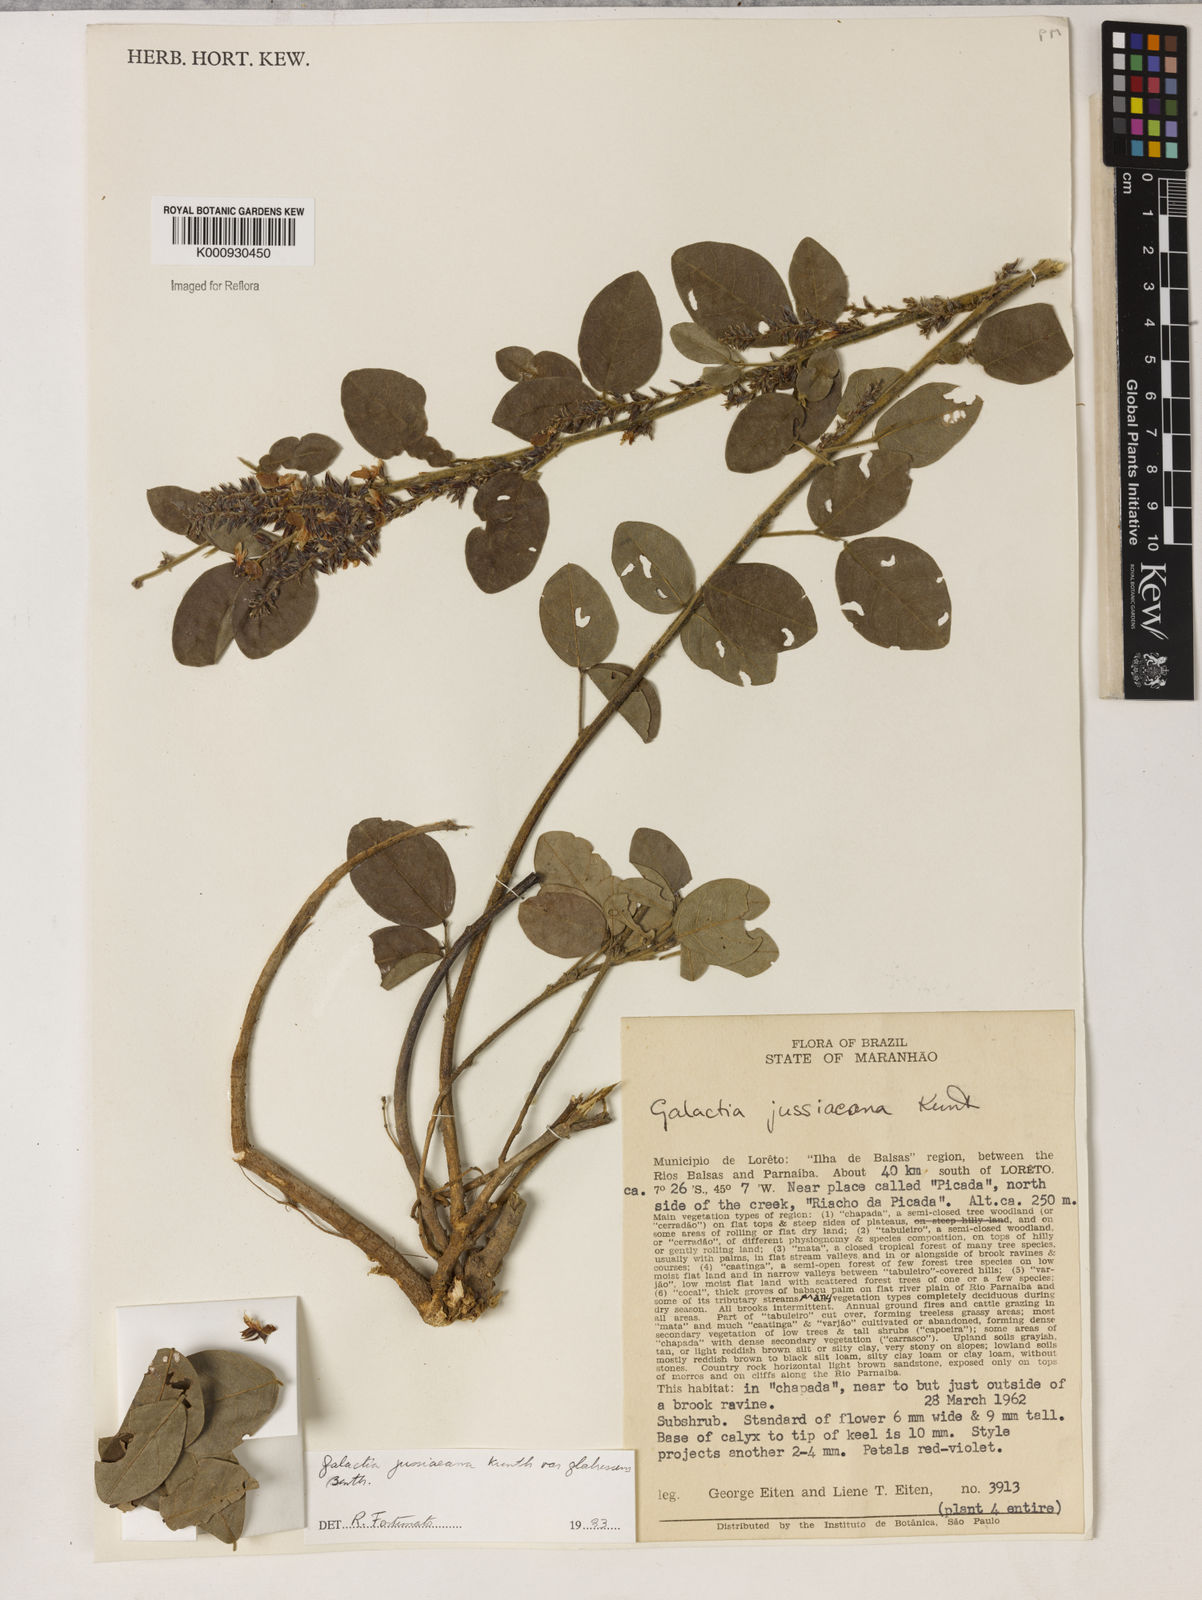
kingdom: Plantae
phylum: Tracheophyta
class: Magnoliopsida
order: Fabales
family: Fabaceae
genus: Galactia
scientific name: Galactia jussiaeana
